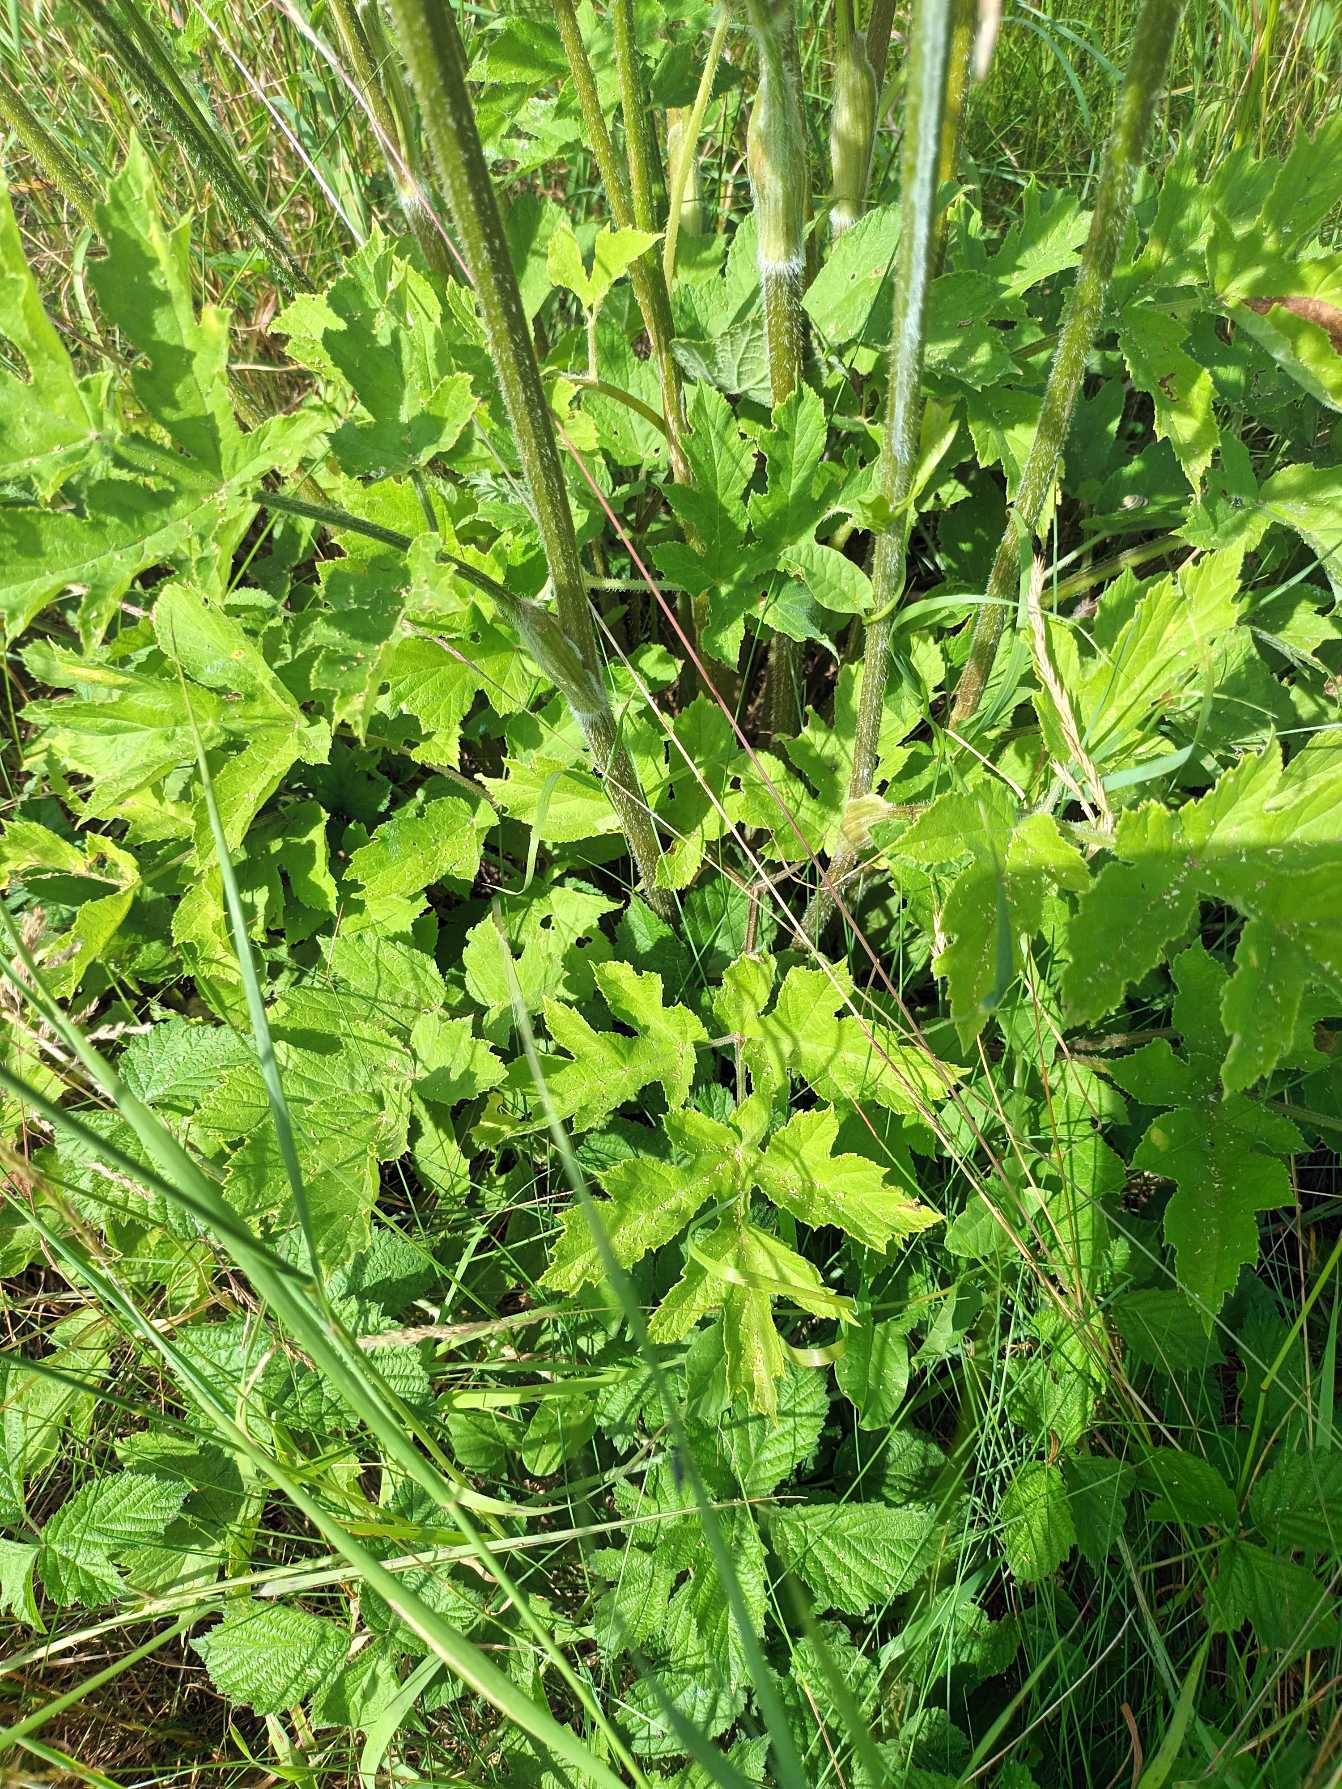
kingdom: Plantae
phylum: Tracheophyta
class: Magnoliopsida
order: Apiales
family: Apiaceae
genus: Heracleum
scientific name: Heracleum sphondylium
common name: Almindelig bjørneklo
